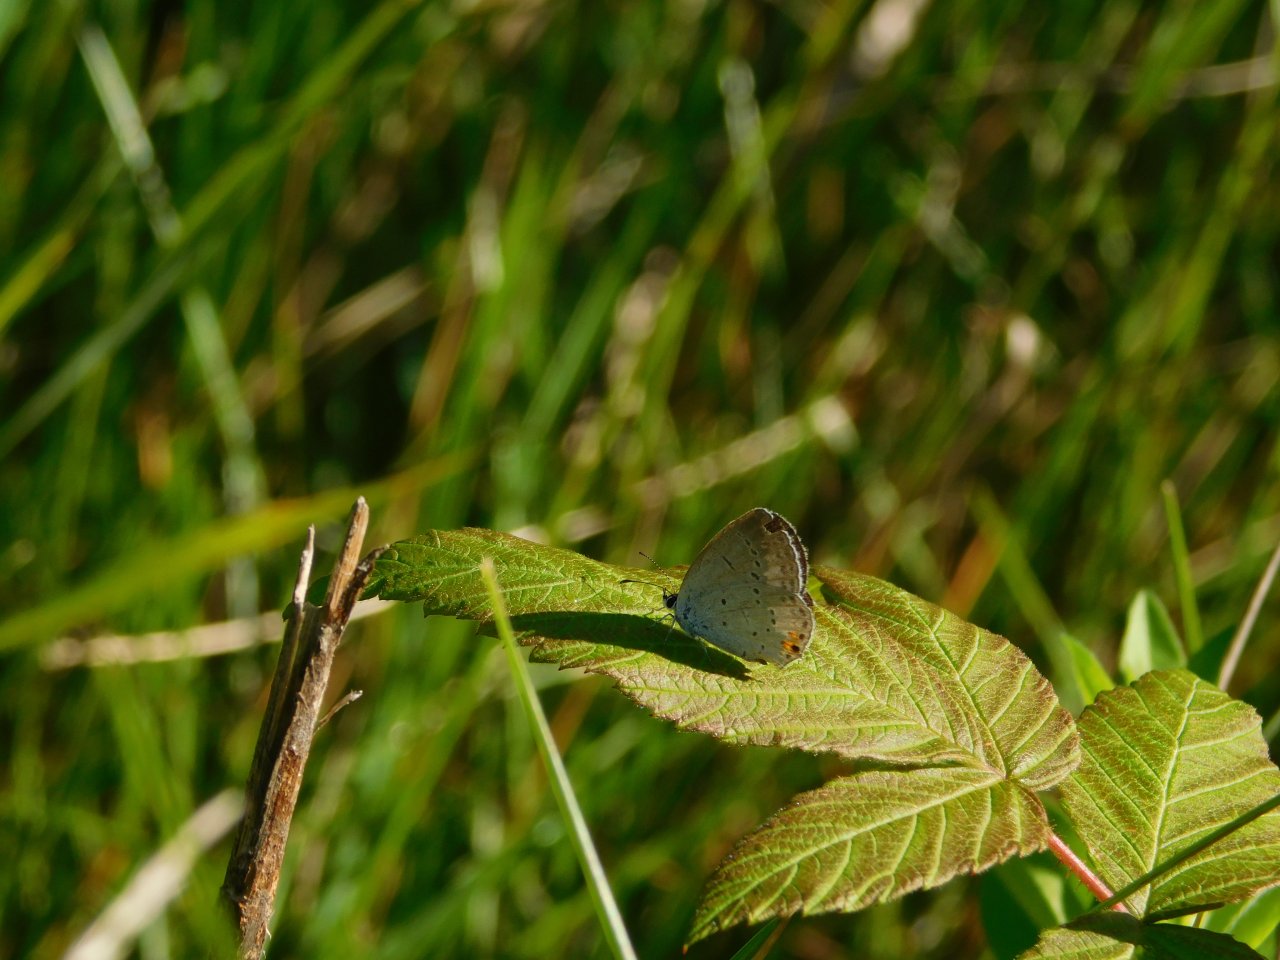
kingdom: Animalia
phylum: Arthropoda
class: Insecta
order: Lepidoptera
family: Lycaenidae
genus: Elkalyce
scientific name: Elkalyce comyntas
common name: Eastern Tailed-Blue
